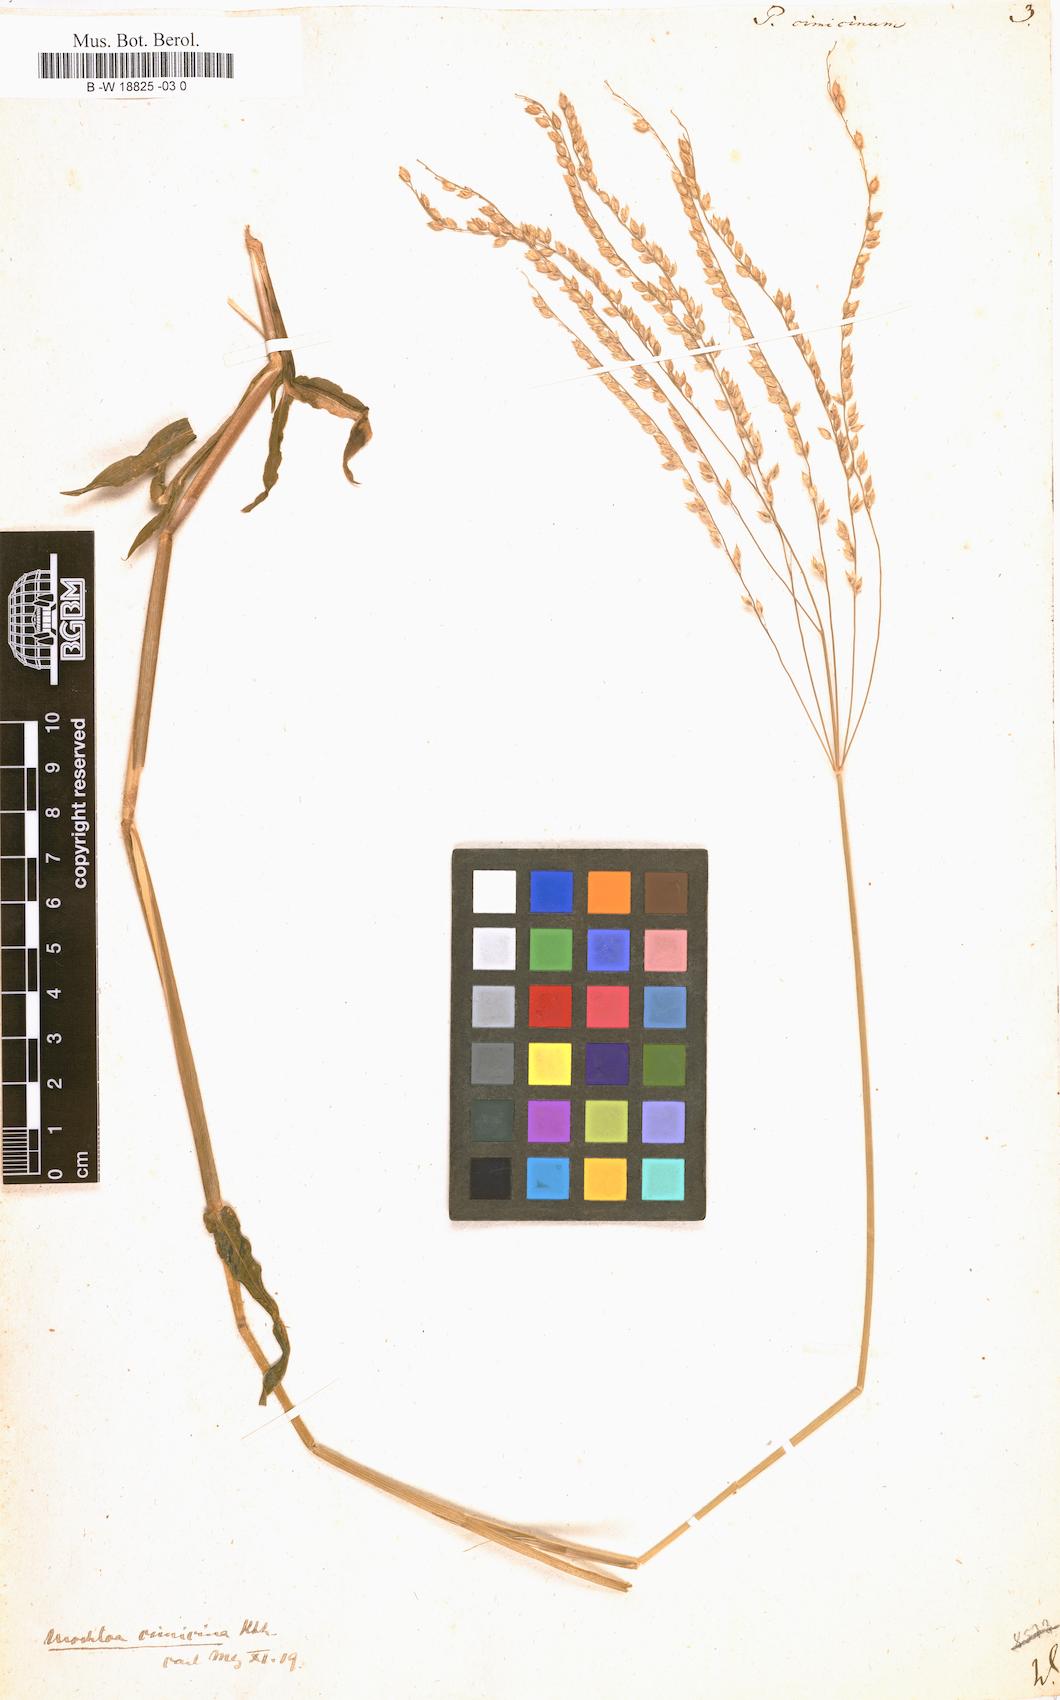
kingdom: Plantae
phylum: Tracheophyta
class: Liliopsida
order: Poales
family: Poaceae
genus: Alloteropsis
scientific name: Alloteropsis cimicina
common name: Summergrass
